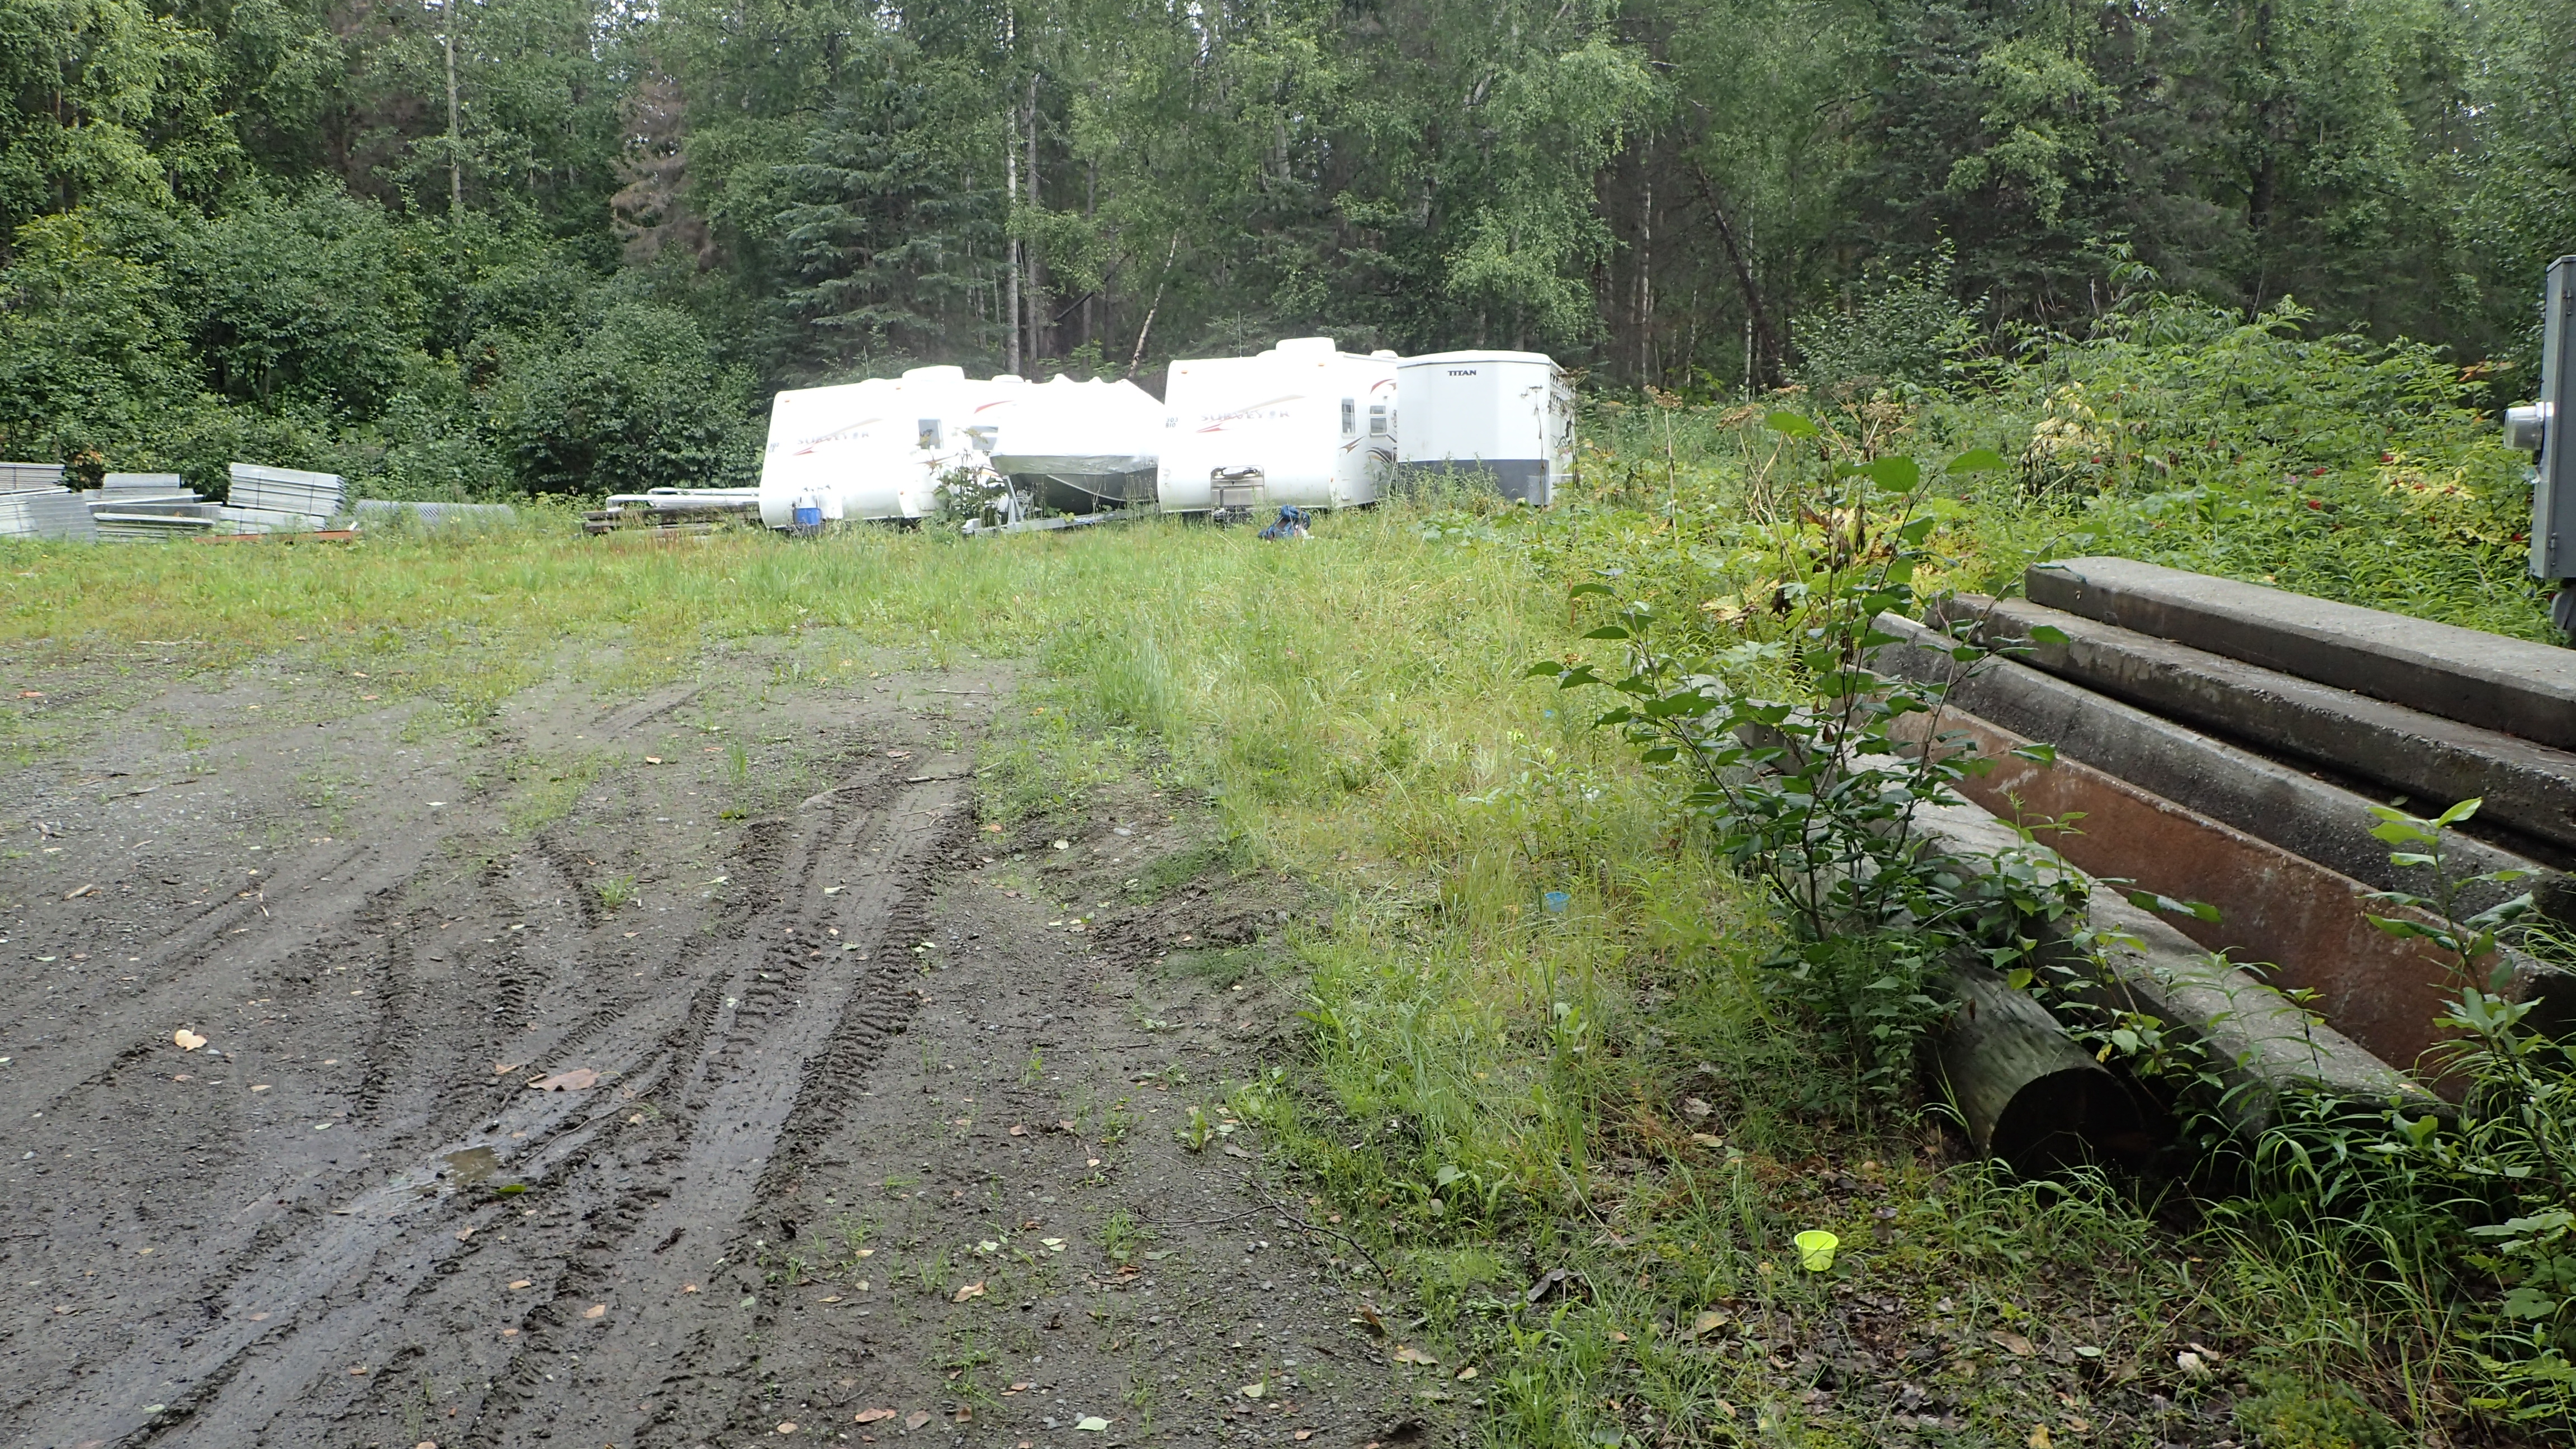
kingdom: Animalia
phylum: Arthropoda
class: Insecta
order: Hemiptera
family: Aphididae
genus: Uroleucon
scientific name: Uroleucon taraxaci
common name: Aphid
